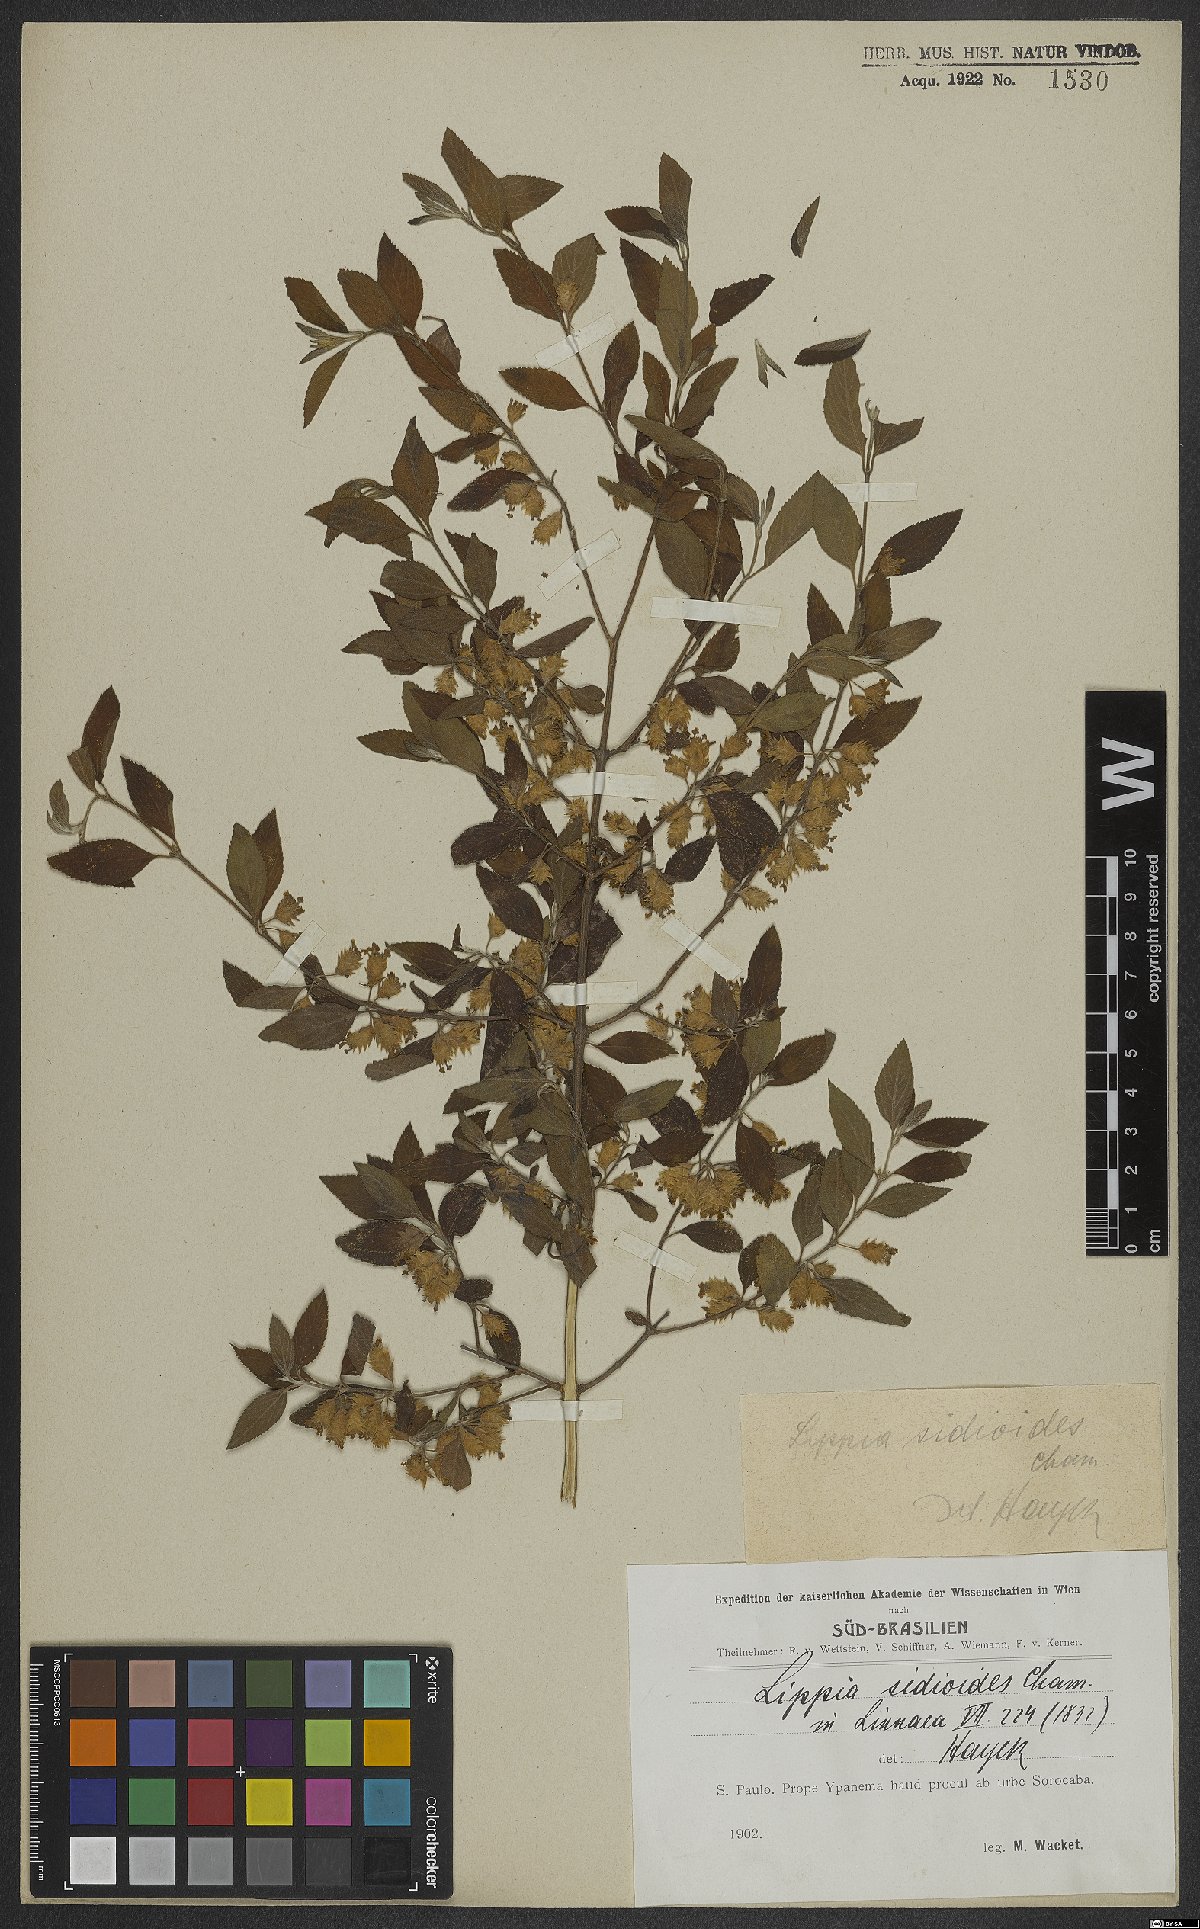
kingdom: Plantae
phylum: Tracheophyta
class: Magnoliopsida
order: Lamiales
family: Verbenaceae
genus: Lippia
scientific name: Lippia origanoides
